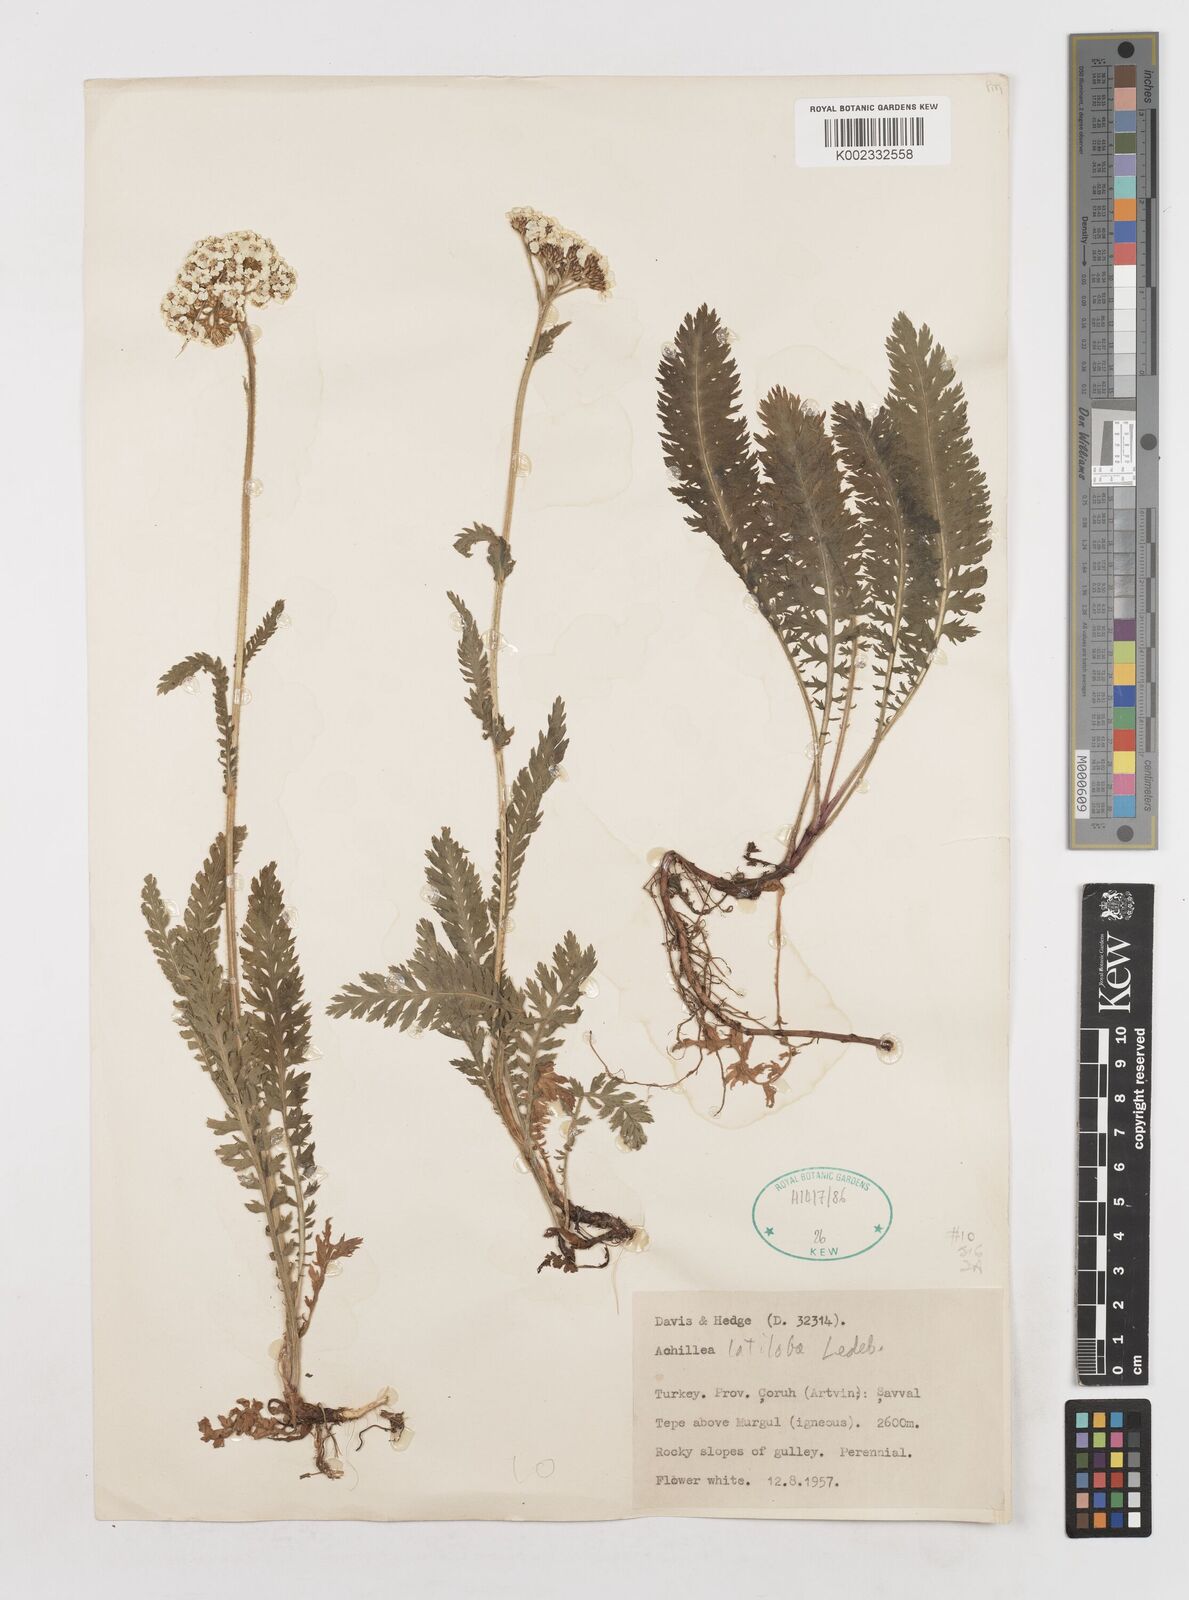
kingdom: Plantae
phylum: Tracheophyta
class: Magnoliopsida
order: Asterales
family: Asteraceae
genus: Achillea
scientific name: Achillea latiloba
